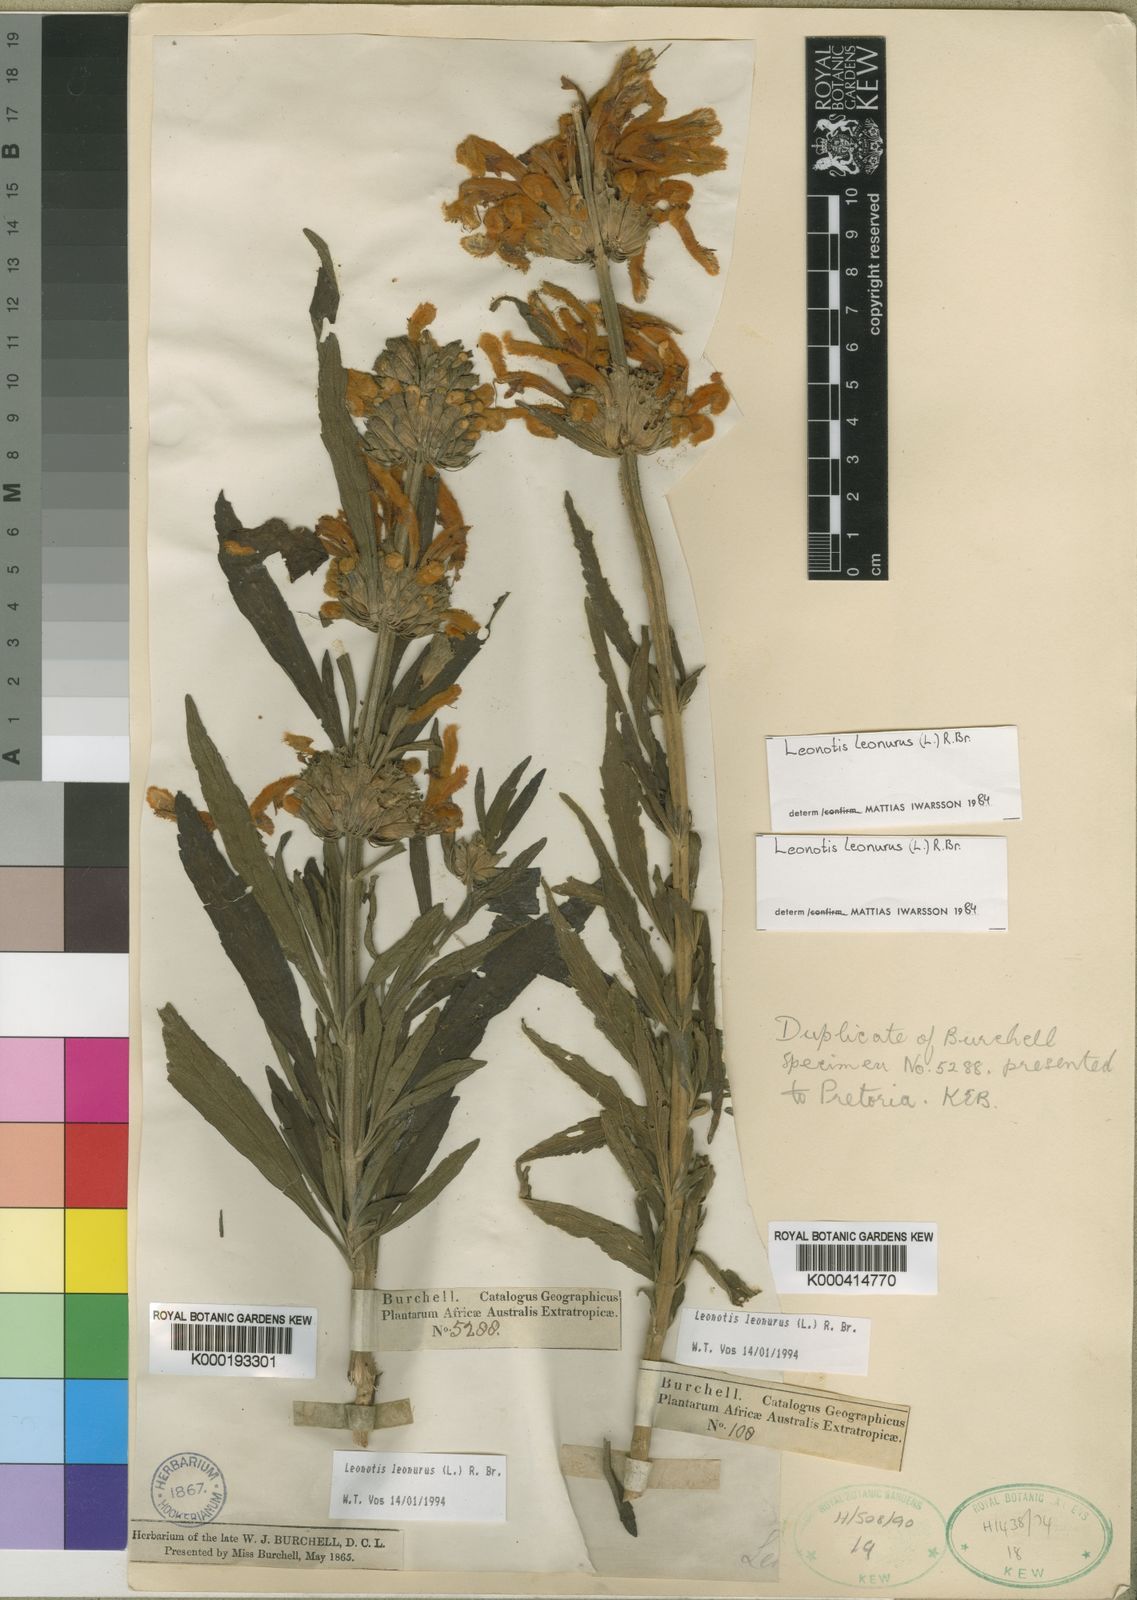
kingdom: Plantae
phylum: Tracheophyta
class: Magnoliopsida
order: Lamiales
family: Lamiaceae
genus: Leonotis
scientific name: Leonotis leonurus
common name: Lion's ear
